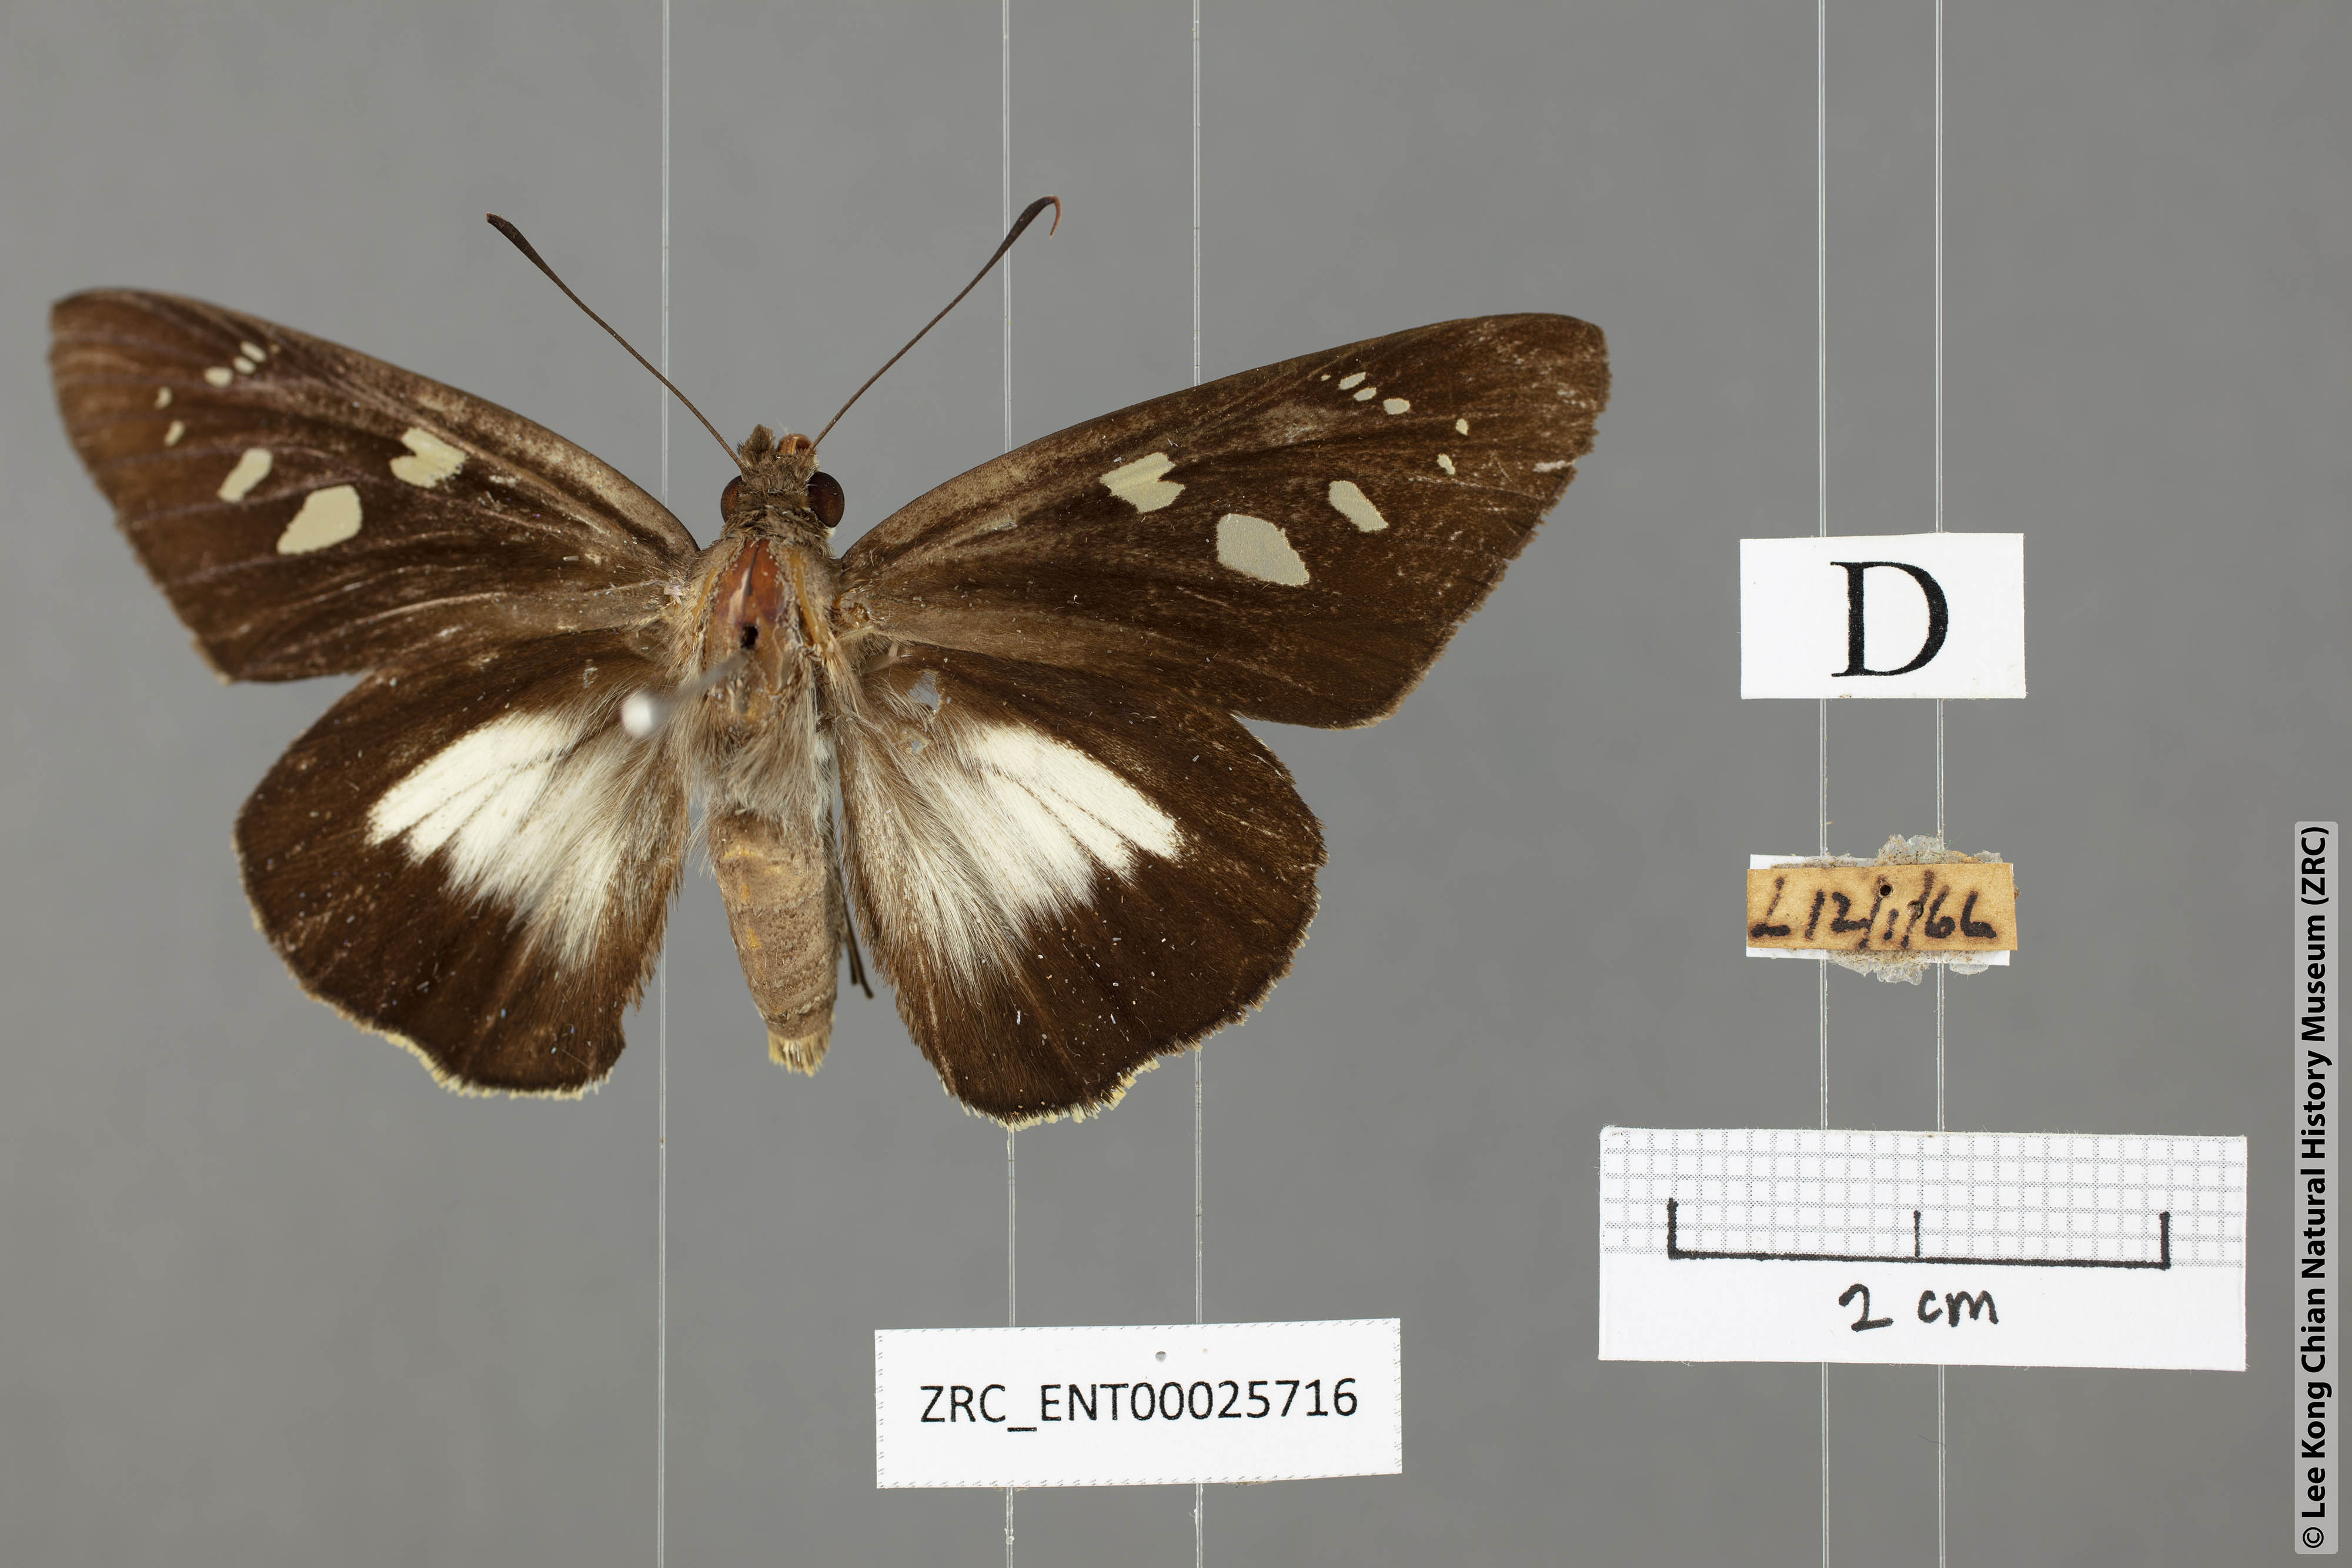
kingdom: Animalia
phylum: Arthropoda
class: Insecta
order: Lepidoptera
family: Hesperiidae
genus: Unkana
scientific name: Unkana ambasa
